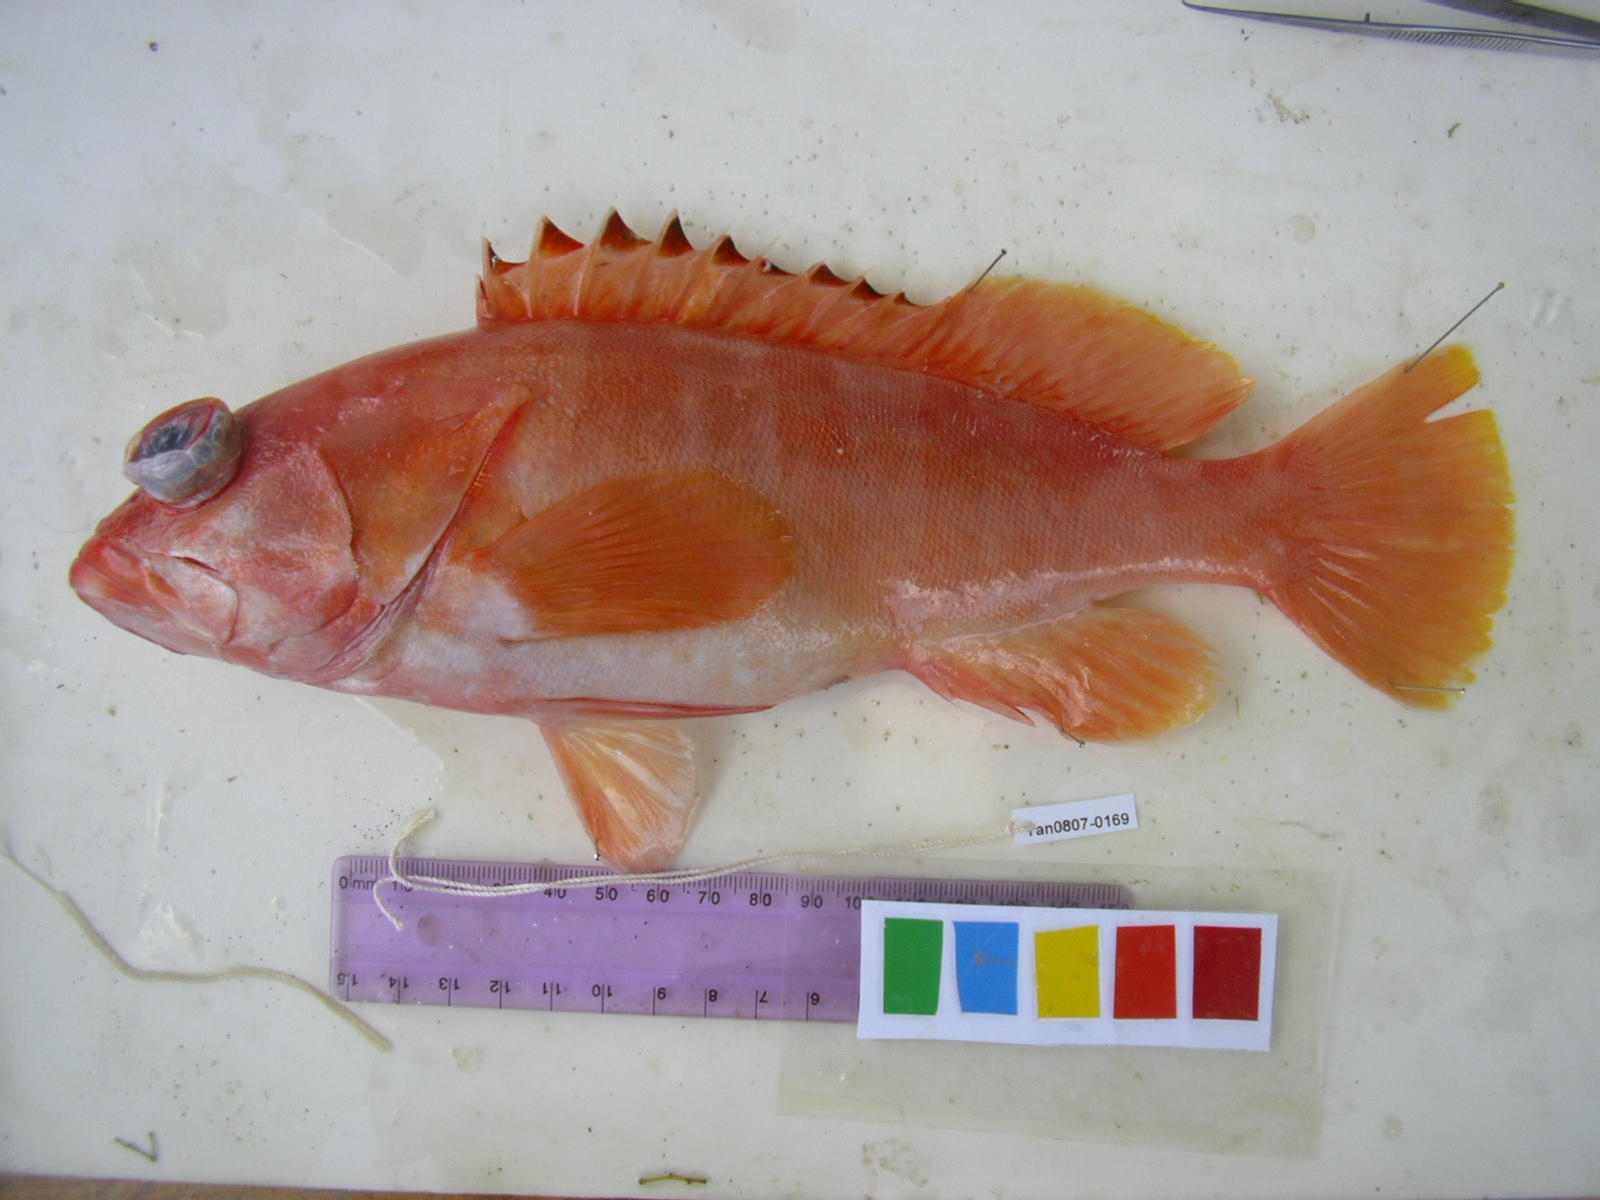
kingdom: Animalia
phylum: Chordata
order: Perciformes
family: Serranidae
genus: Epinephelus
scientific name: Epinephelus fasciatus
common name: Blacktip grouper
